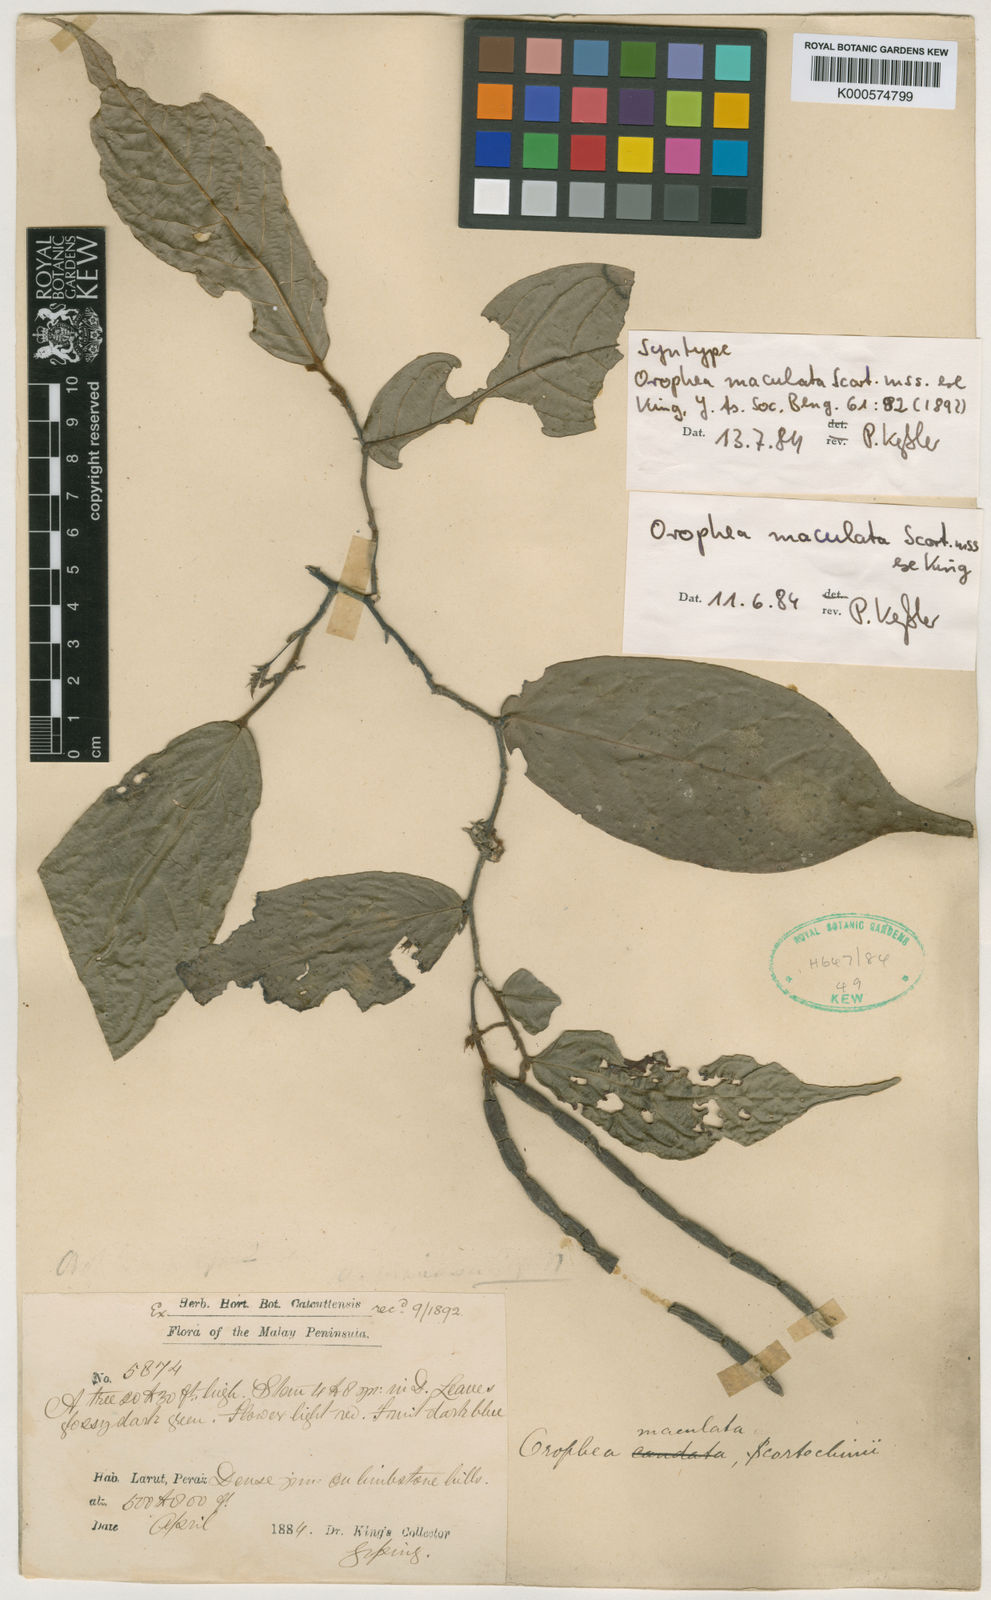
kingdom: Plantae
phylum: Tracheophyta
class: Magnoliopsida
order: Magnoliales
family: Annonaceae
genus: Orophea
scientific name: Orophea maculata
